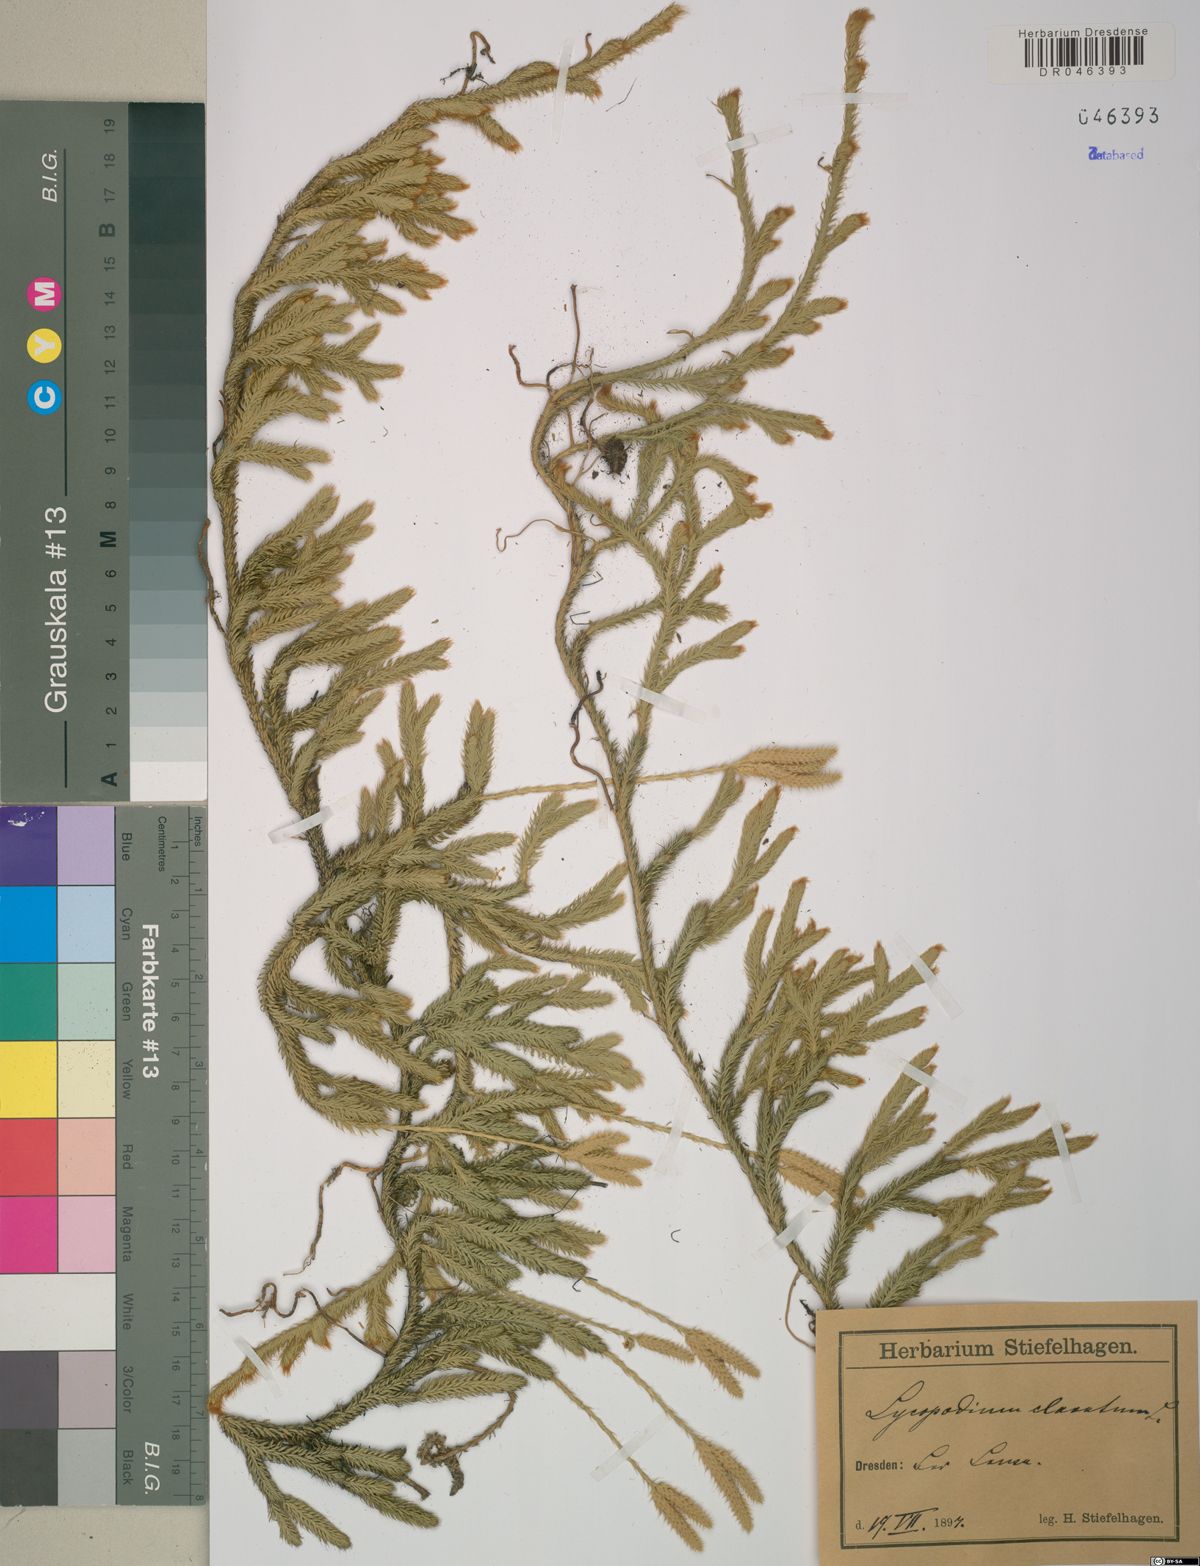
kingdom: Plantae
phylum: Tracheophyta
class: Lycopodiopsida
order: Lycopodiales
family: Lycopodiaceae
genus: Lycopodium
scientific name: Lycopodium clavatum
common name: Stag's-horn clubmoss
